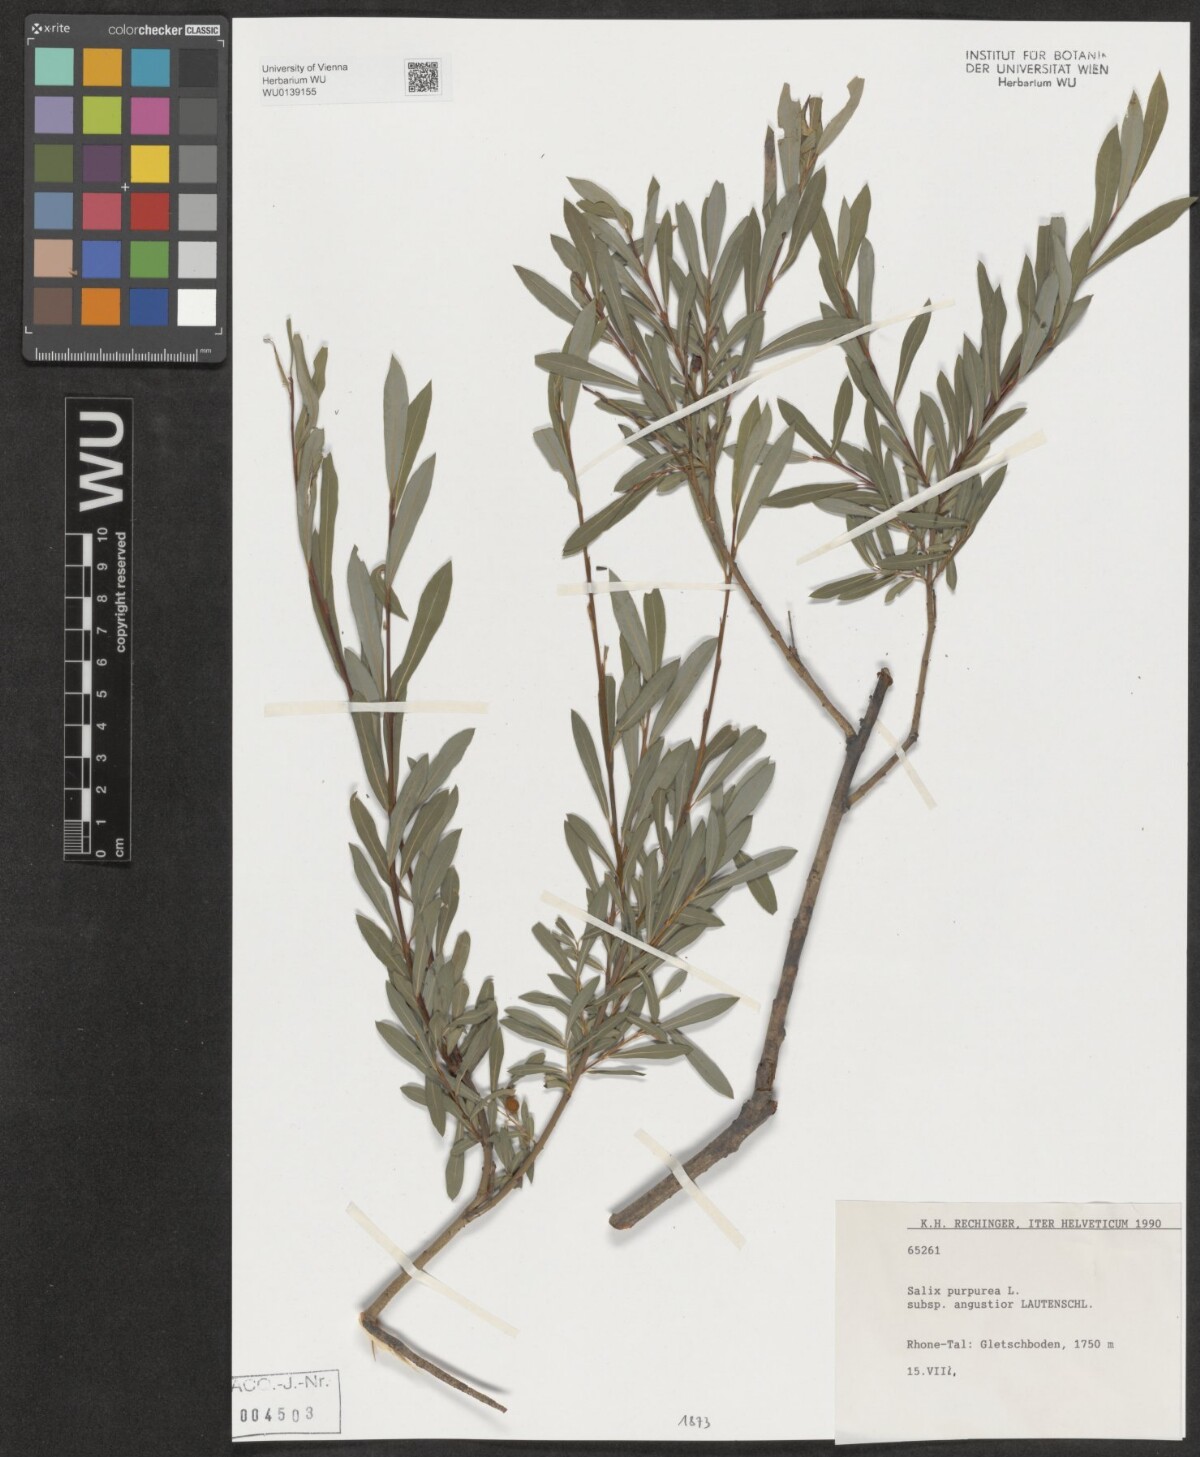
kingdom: Plantae
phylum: Tracheophyta
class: Magnoliopsida
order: Malpighiales
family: Salicaceae
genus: Salix
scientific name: Salix purpurea
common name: Purple willow
